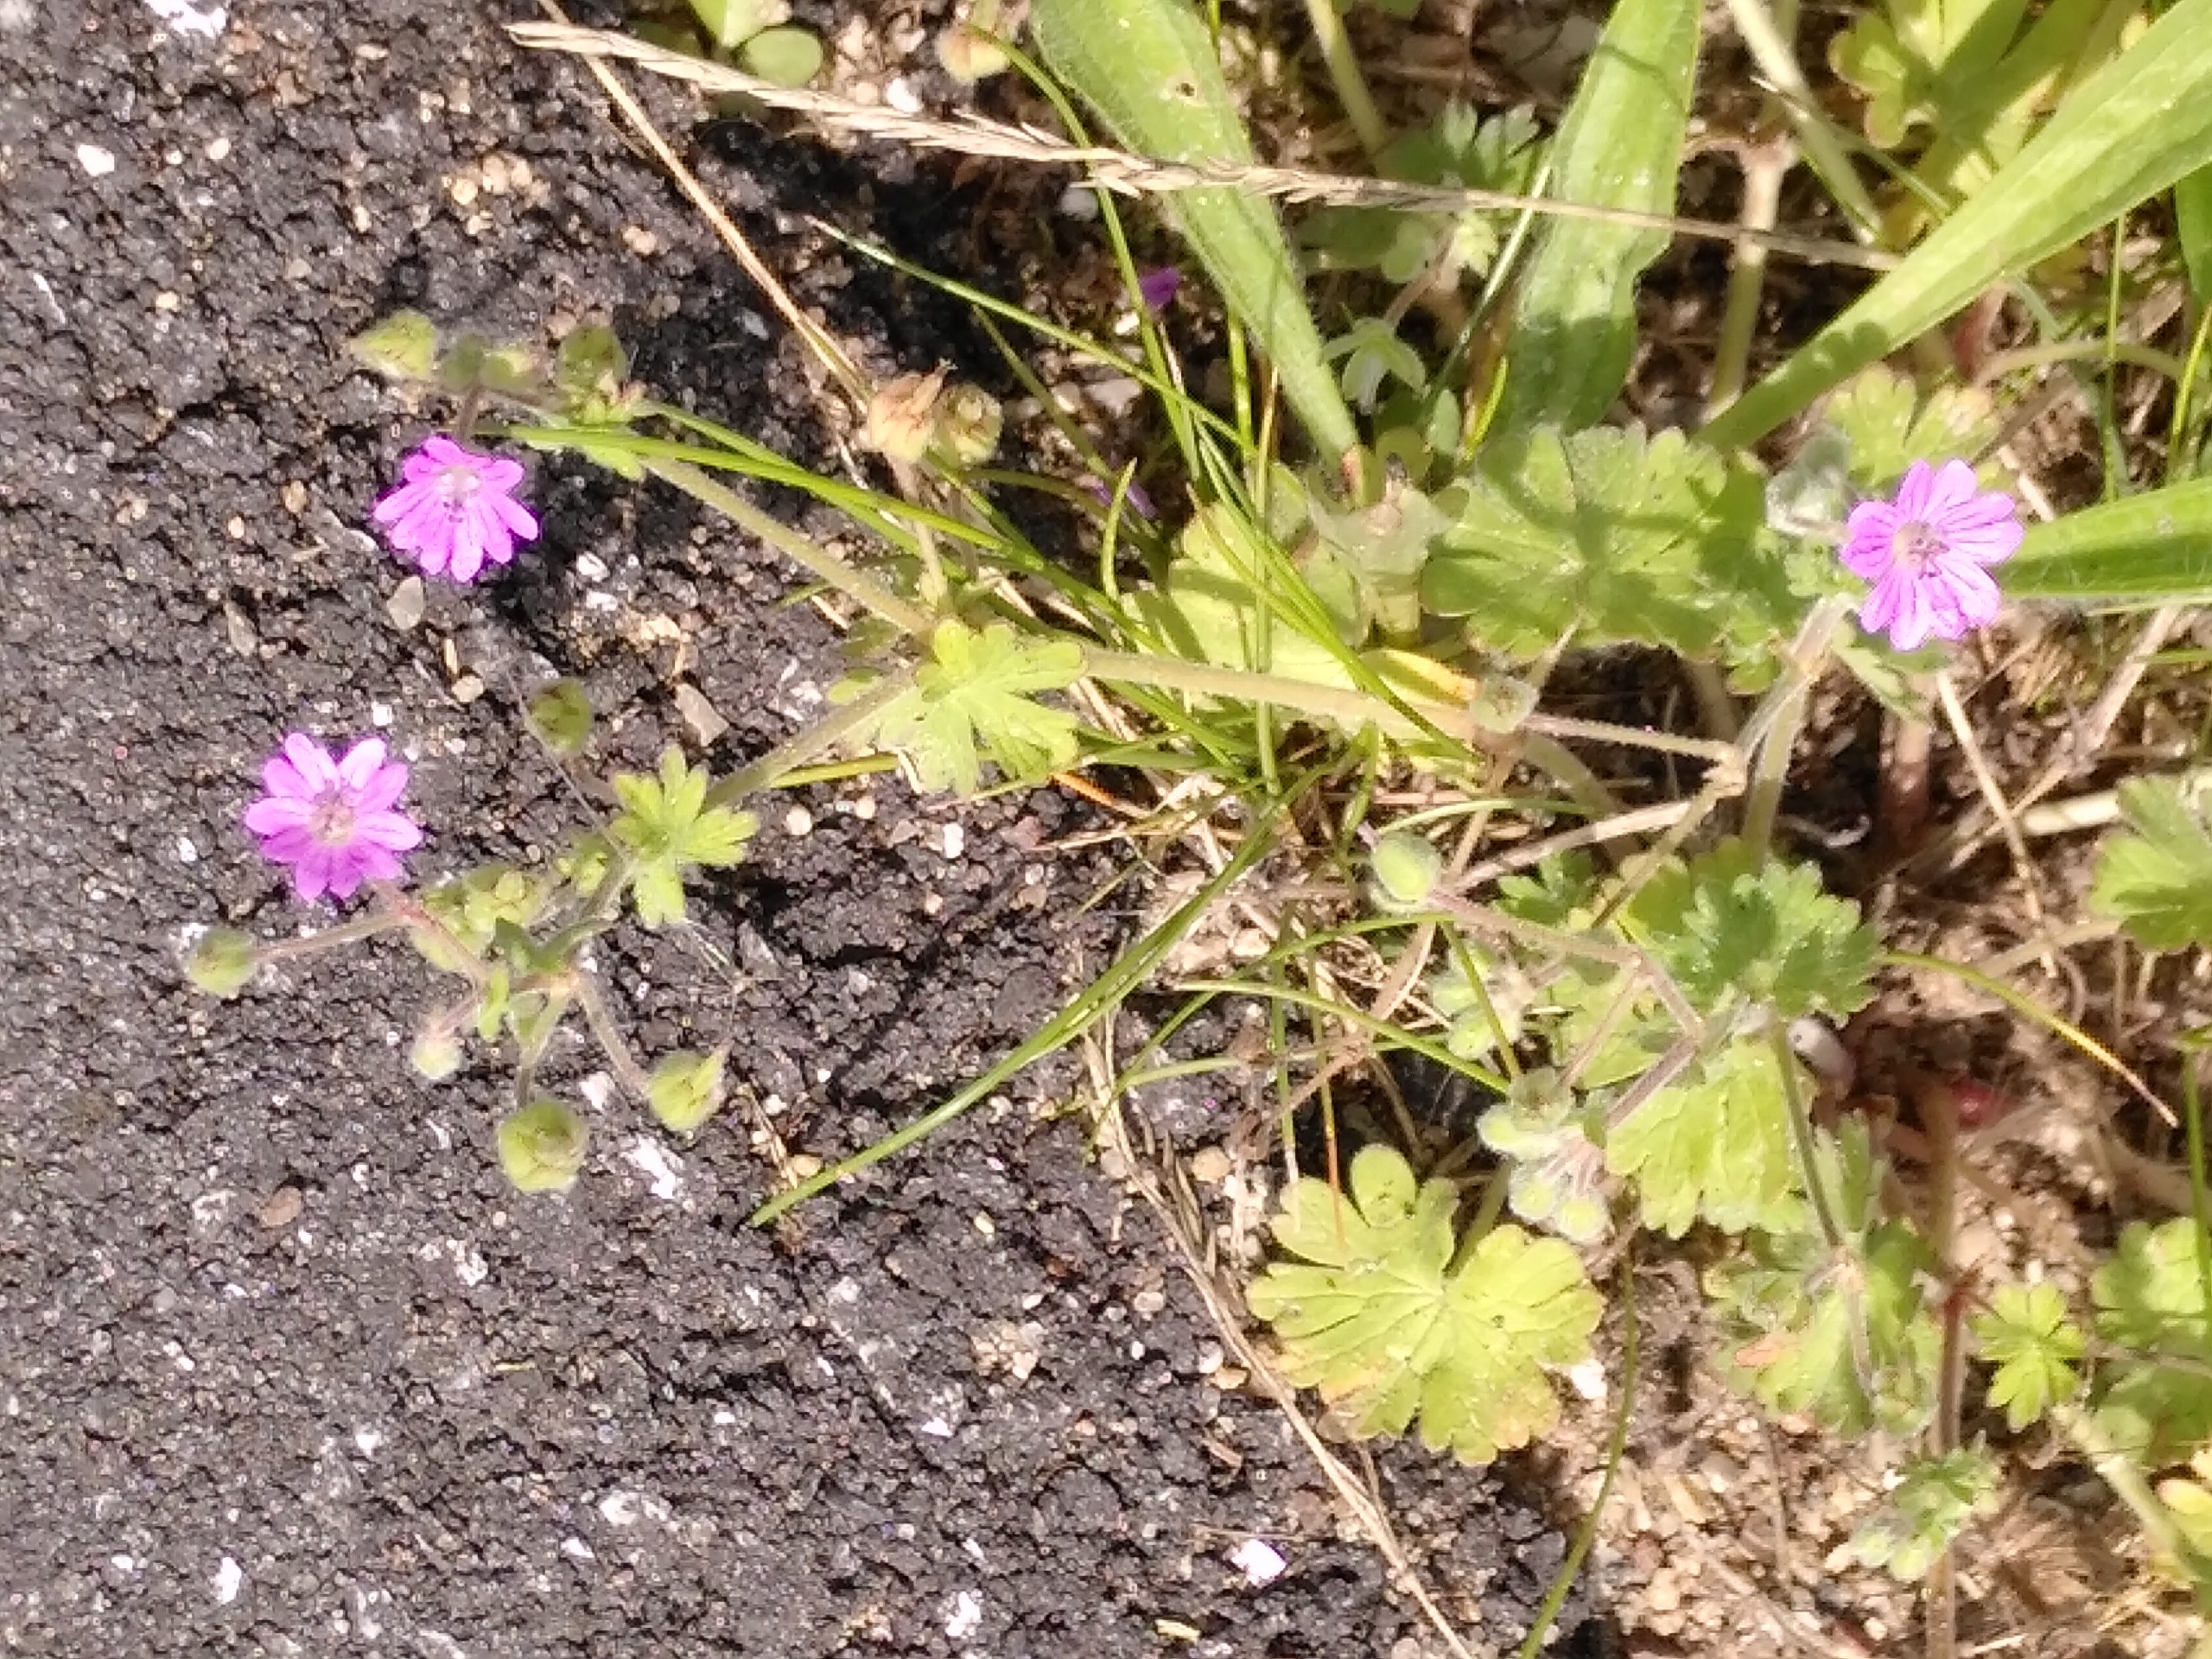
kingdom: Plantae
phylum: Tracheophyta
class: Magnoliopsida
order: Geraniales
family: Geraniaceae
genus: Geranium
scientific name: Geranium molle
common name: Blød storkenæb
